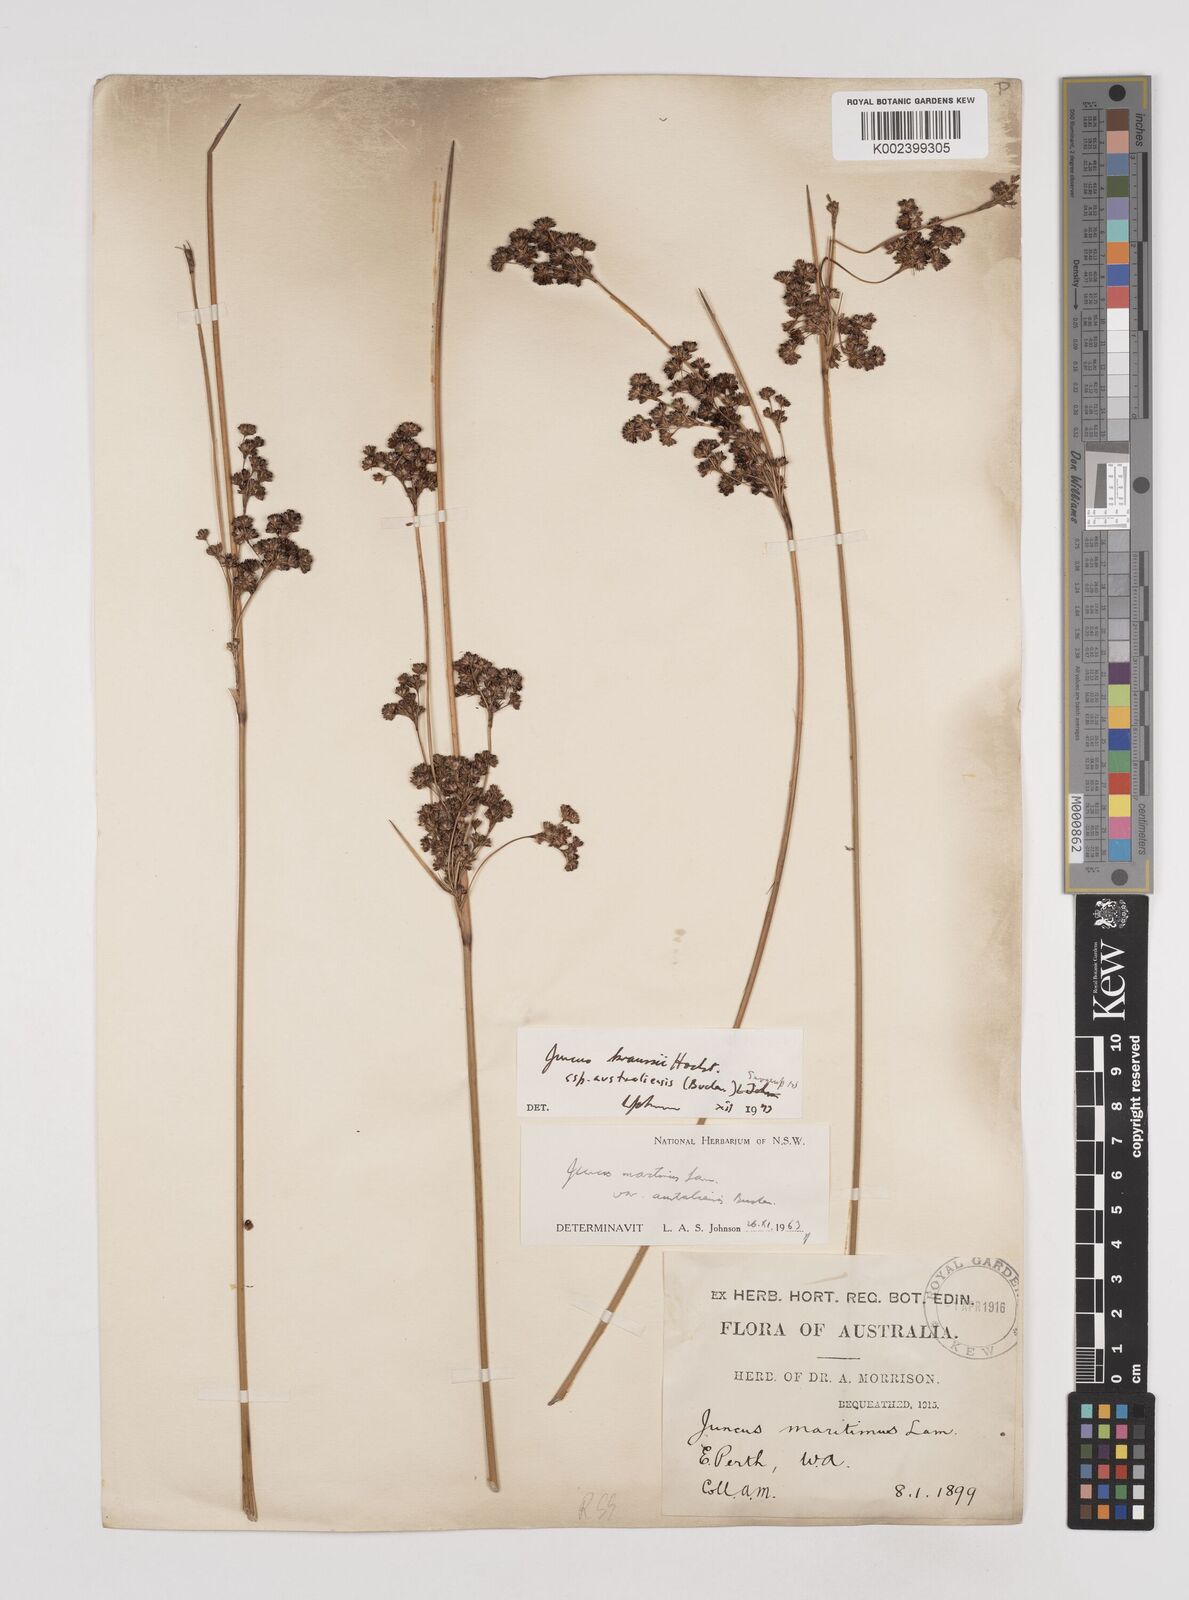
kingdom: Plantae
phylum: Tracheophyta
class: Liliopsida
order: Poales
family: Juncaceae
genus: Juncus
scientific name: Juncus kraussii
